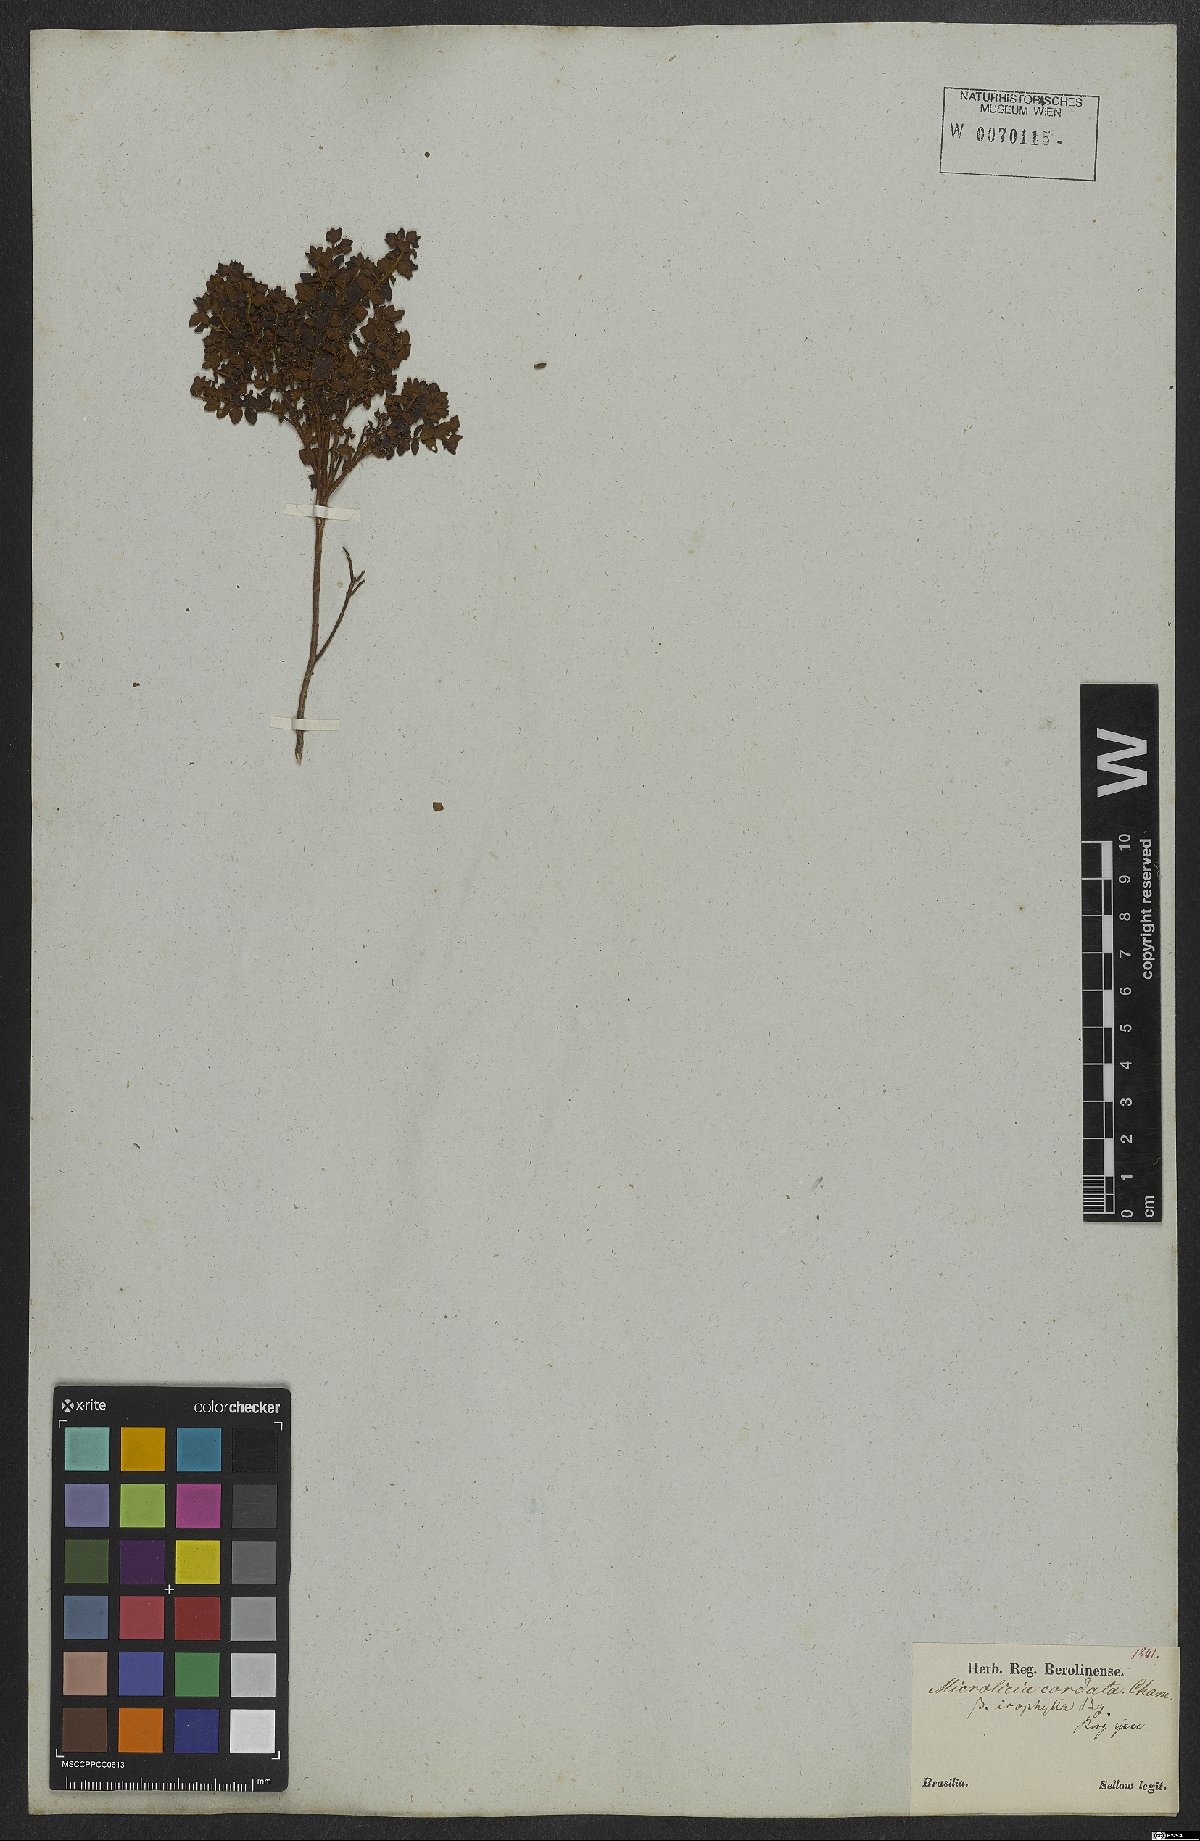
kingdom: Plantae
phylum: Tracheophyta
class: Magnoliopsida
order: Myrtales
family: Melastomataceae
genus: Microlicia
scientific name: Microlicia cordata
